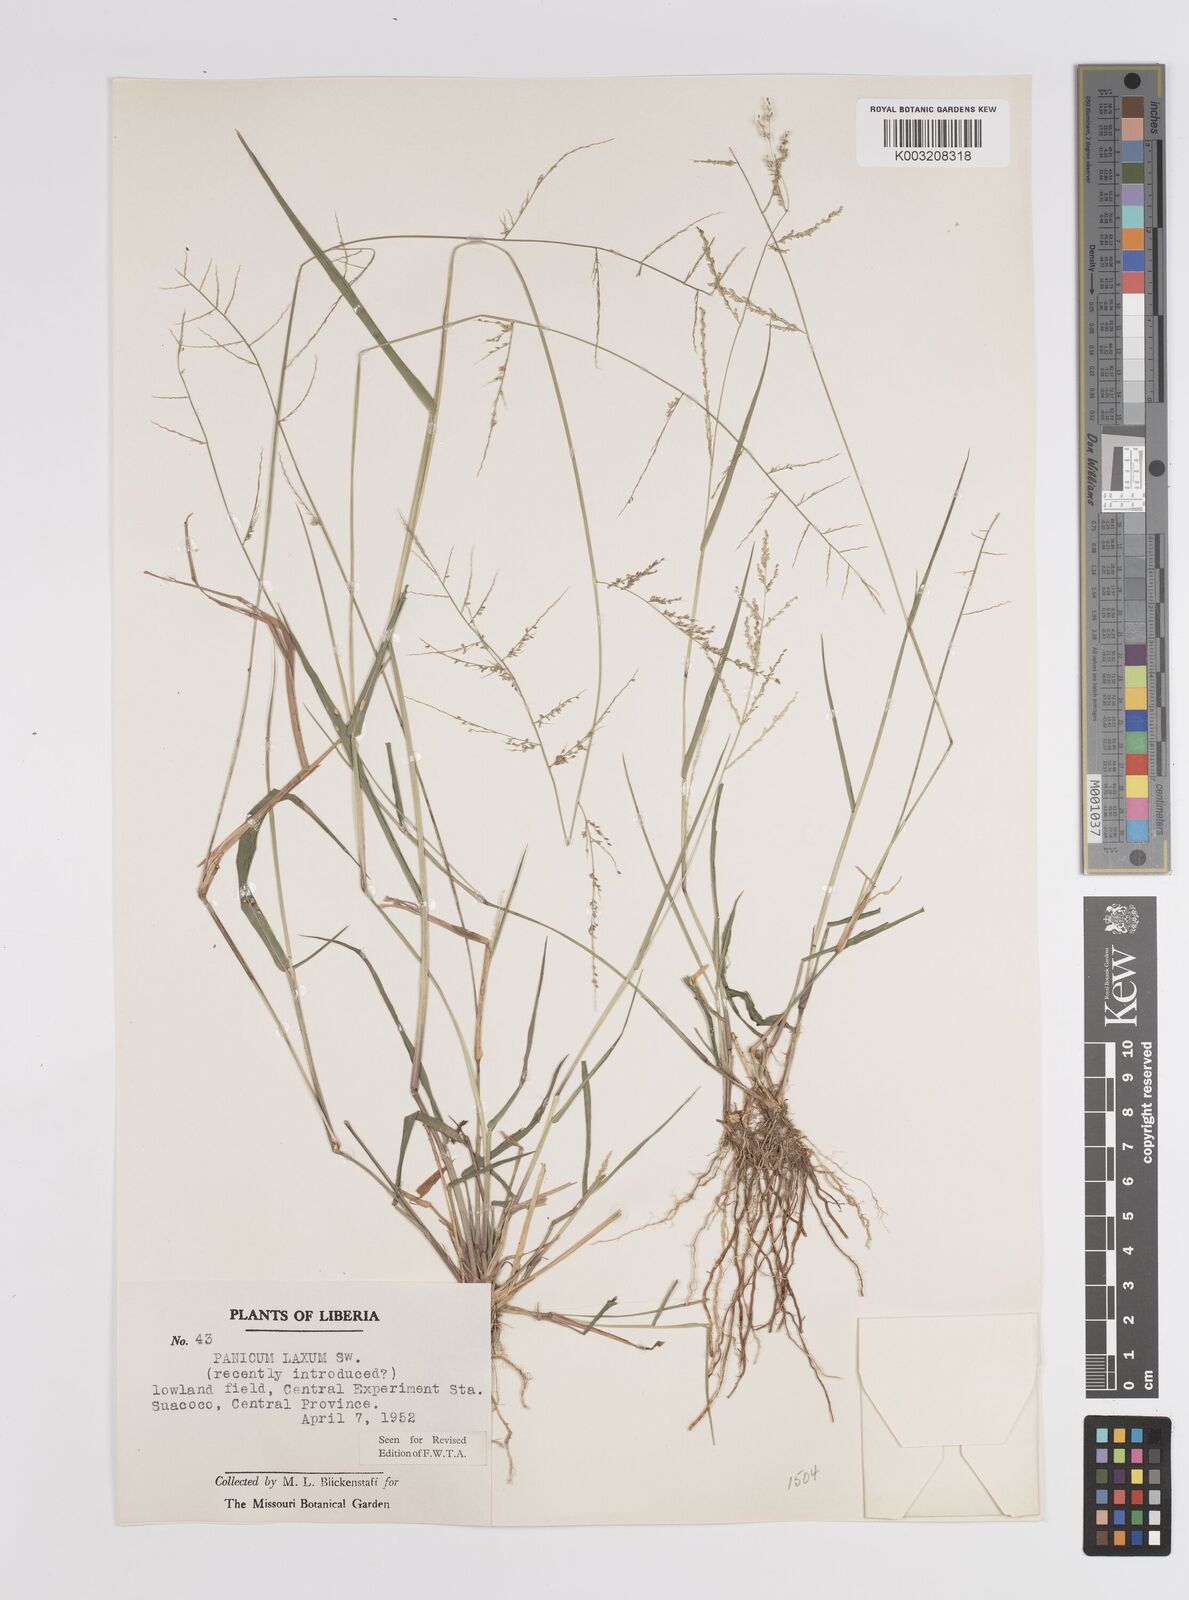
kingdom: Plantae
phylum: Tracheophyta
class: Liliopsida
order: Poales
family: Poaceae
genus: Steinchisma
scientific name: Steinchisma laxum
